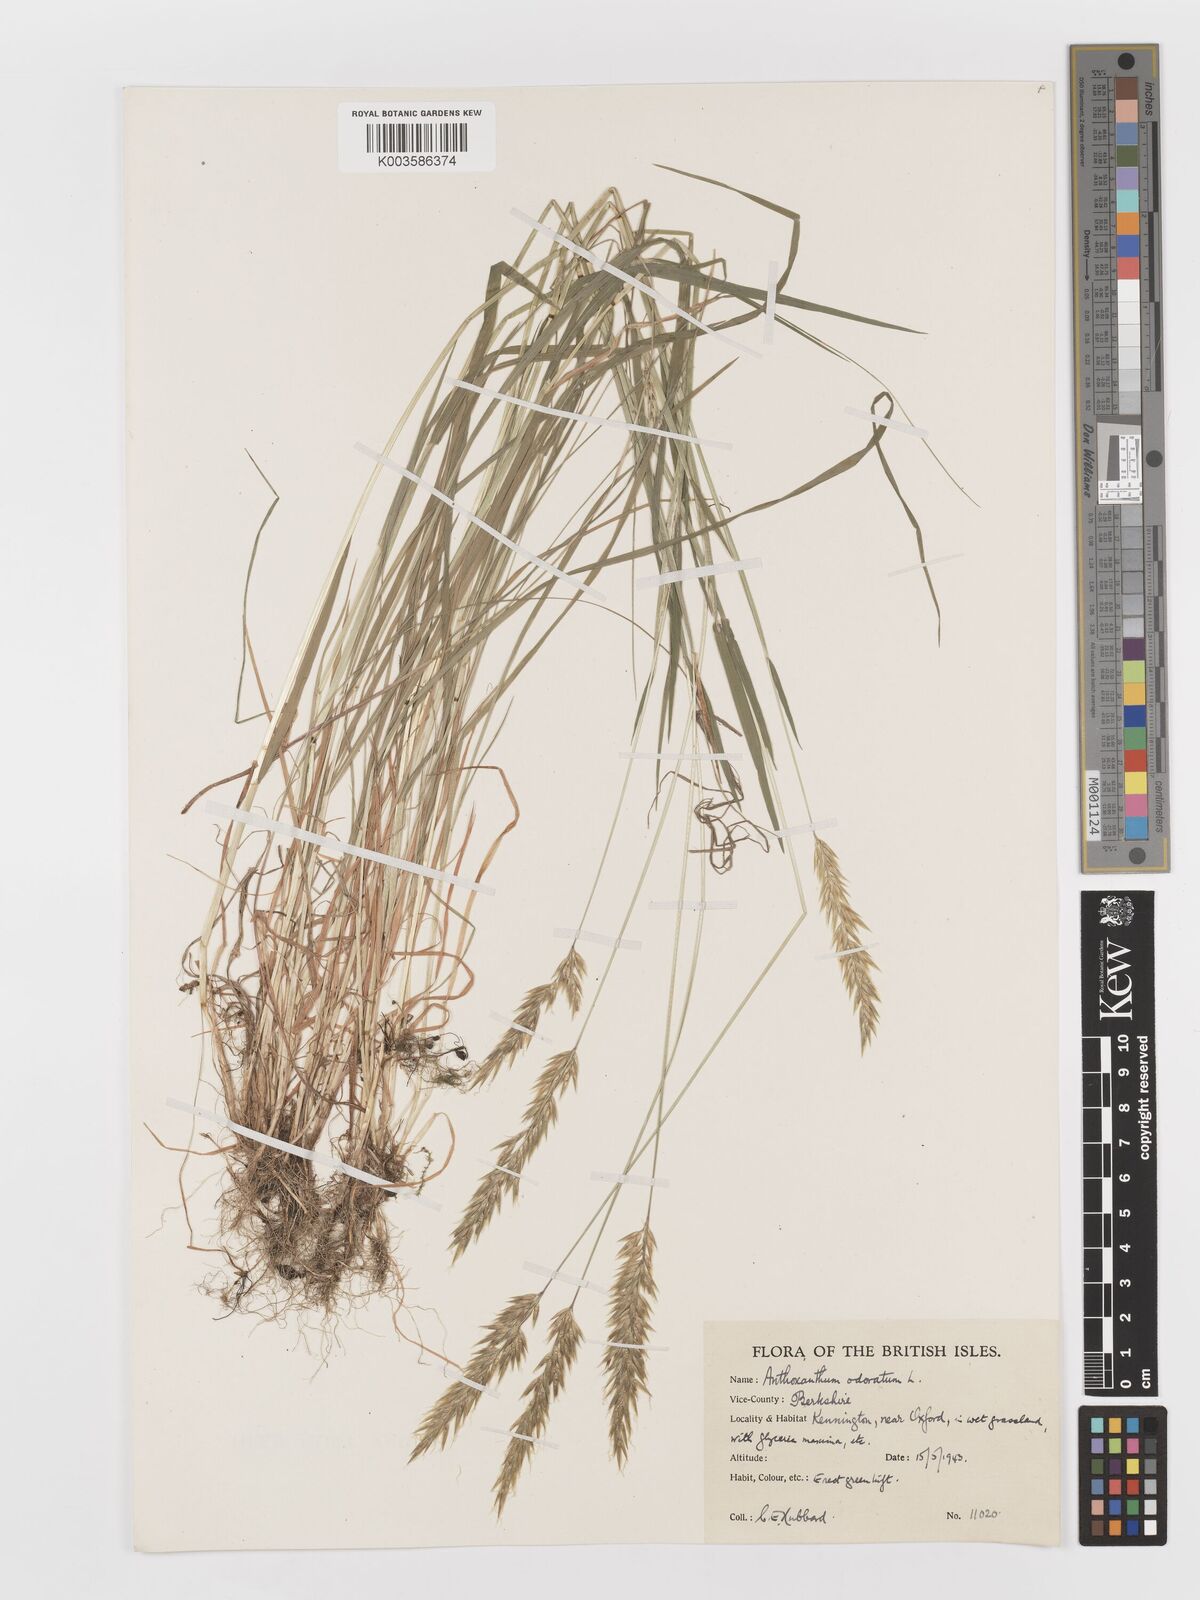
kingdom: Plantae
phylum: Tracheophyta
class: Liliopsida
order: Poales
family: Poaceae
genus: Anthoxanthum
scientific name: Anthoxanthum odoratum
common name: Sweet vernalgrass
